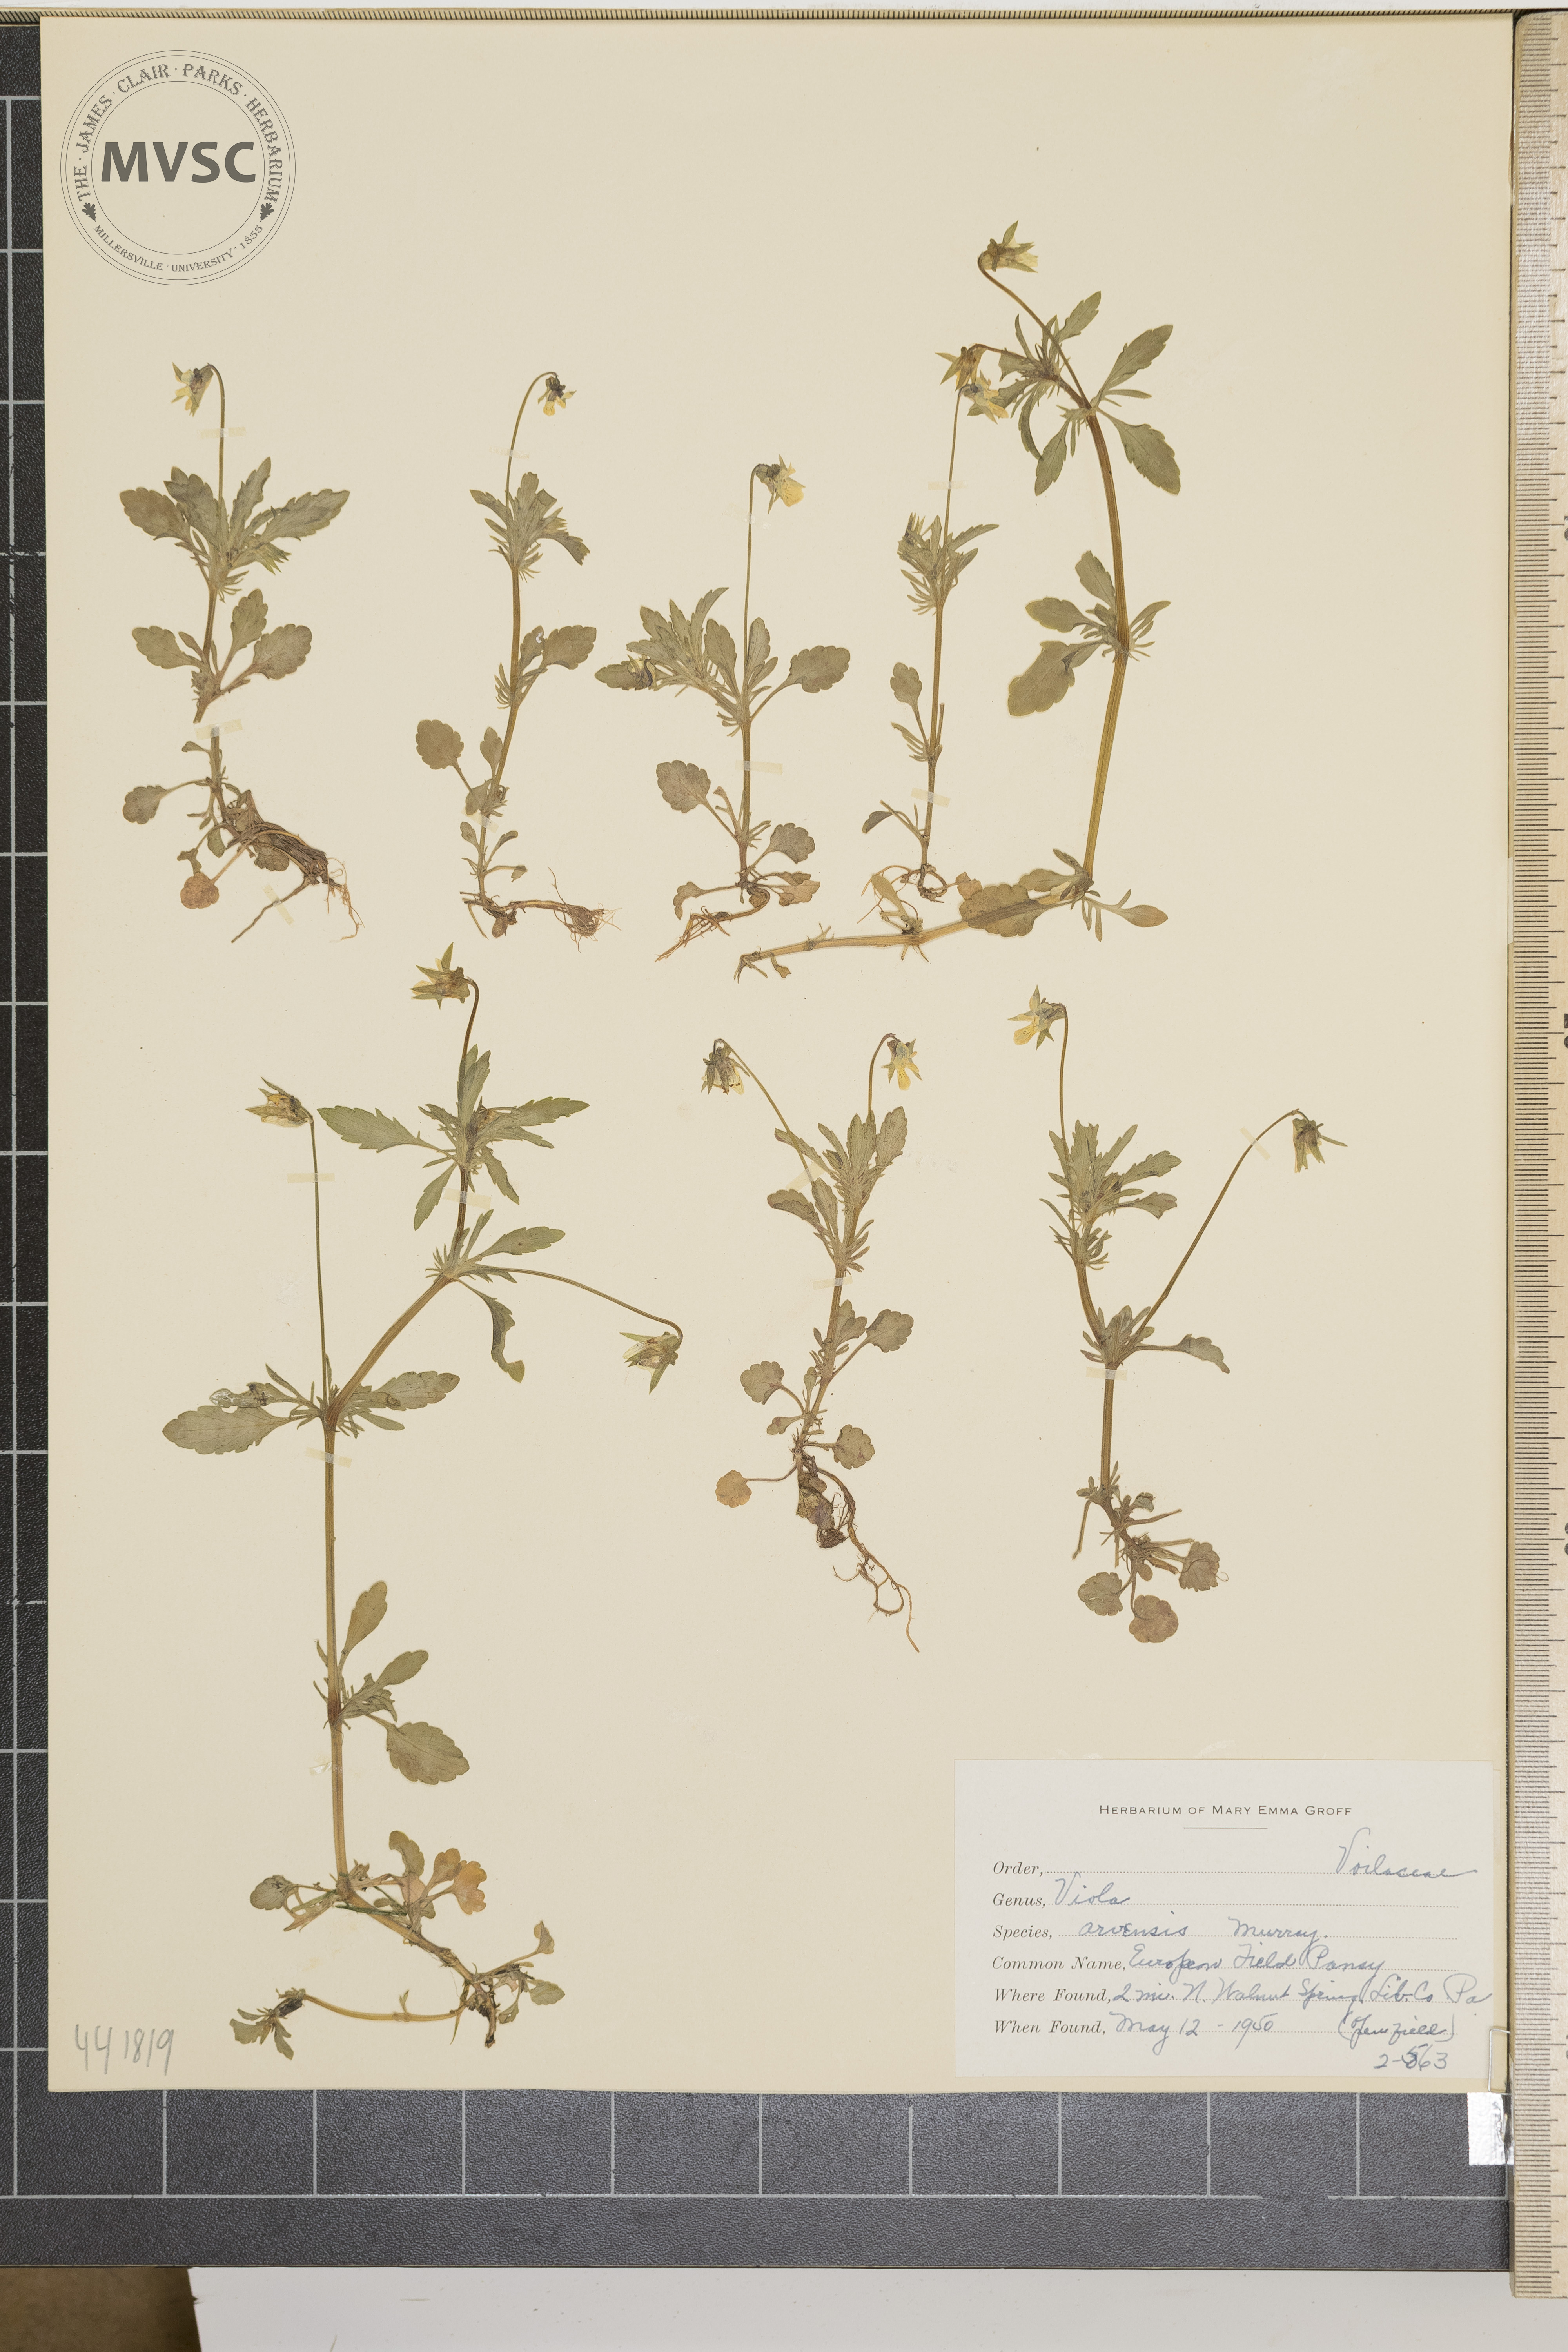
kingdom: Plantae
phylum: Tracheophyta
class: Magnoliopsida
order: Malpighiales
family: Violaceae
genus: Viola
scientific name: Viola arvensis
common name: European field pansy
